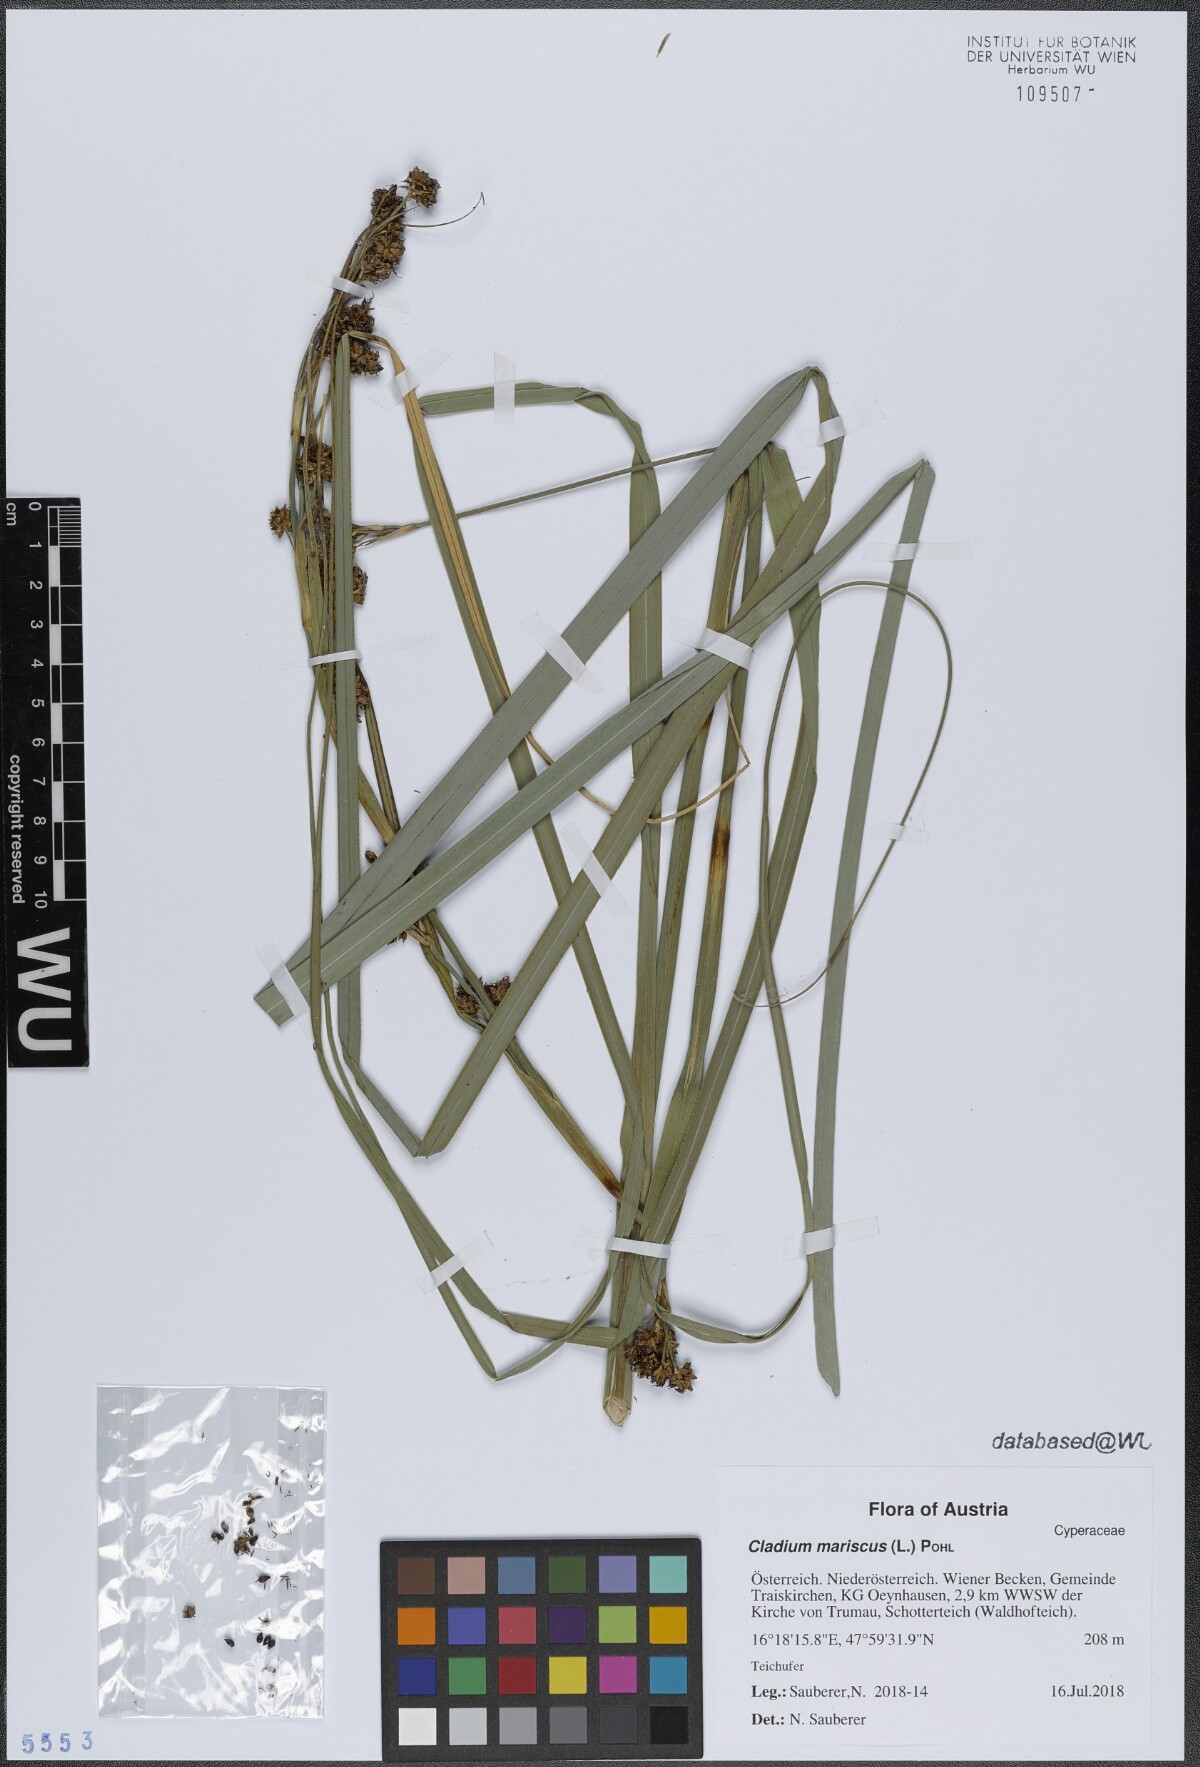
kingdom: Plantae
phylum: Tracheophyta
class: Liliopsida
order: Poales
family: Cyperaceae
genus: Cladium
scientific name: Cladium mariscus
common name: Great fen-sedge
